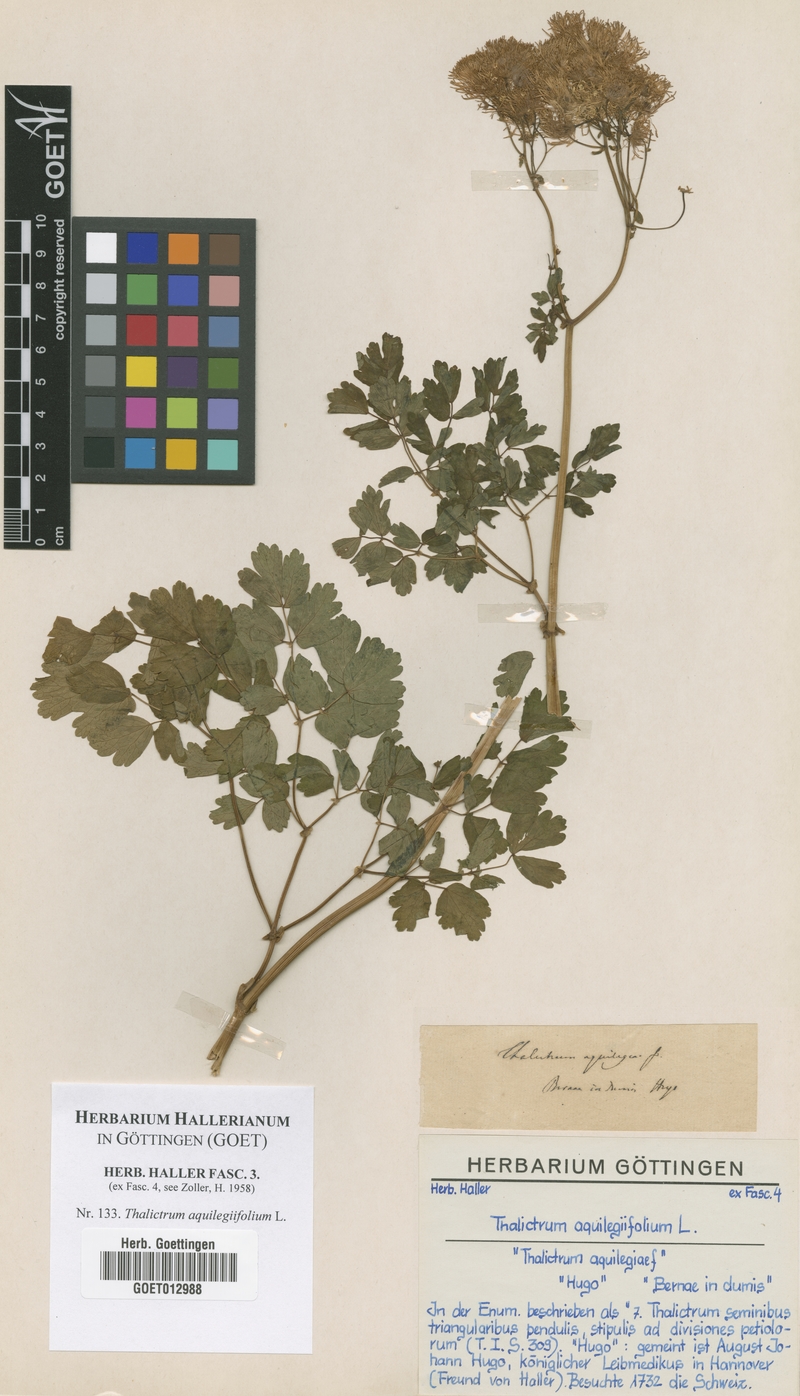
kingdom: Plantae
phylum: Tracheophyta
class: Magnoliopsida
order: Ranunculales
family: Ranunculaceae
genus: Thalictrum
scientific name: Thalictrum aquilegiifolium
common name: French meadow-rue
